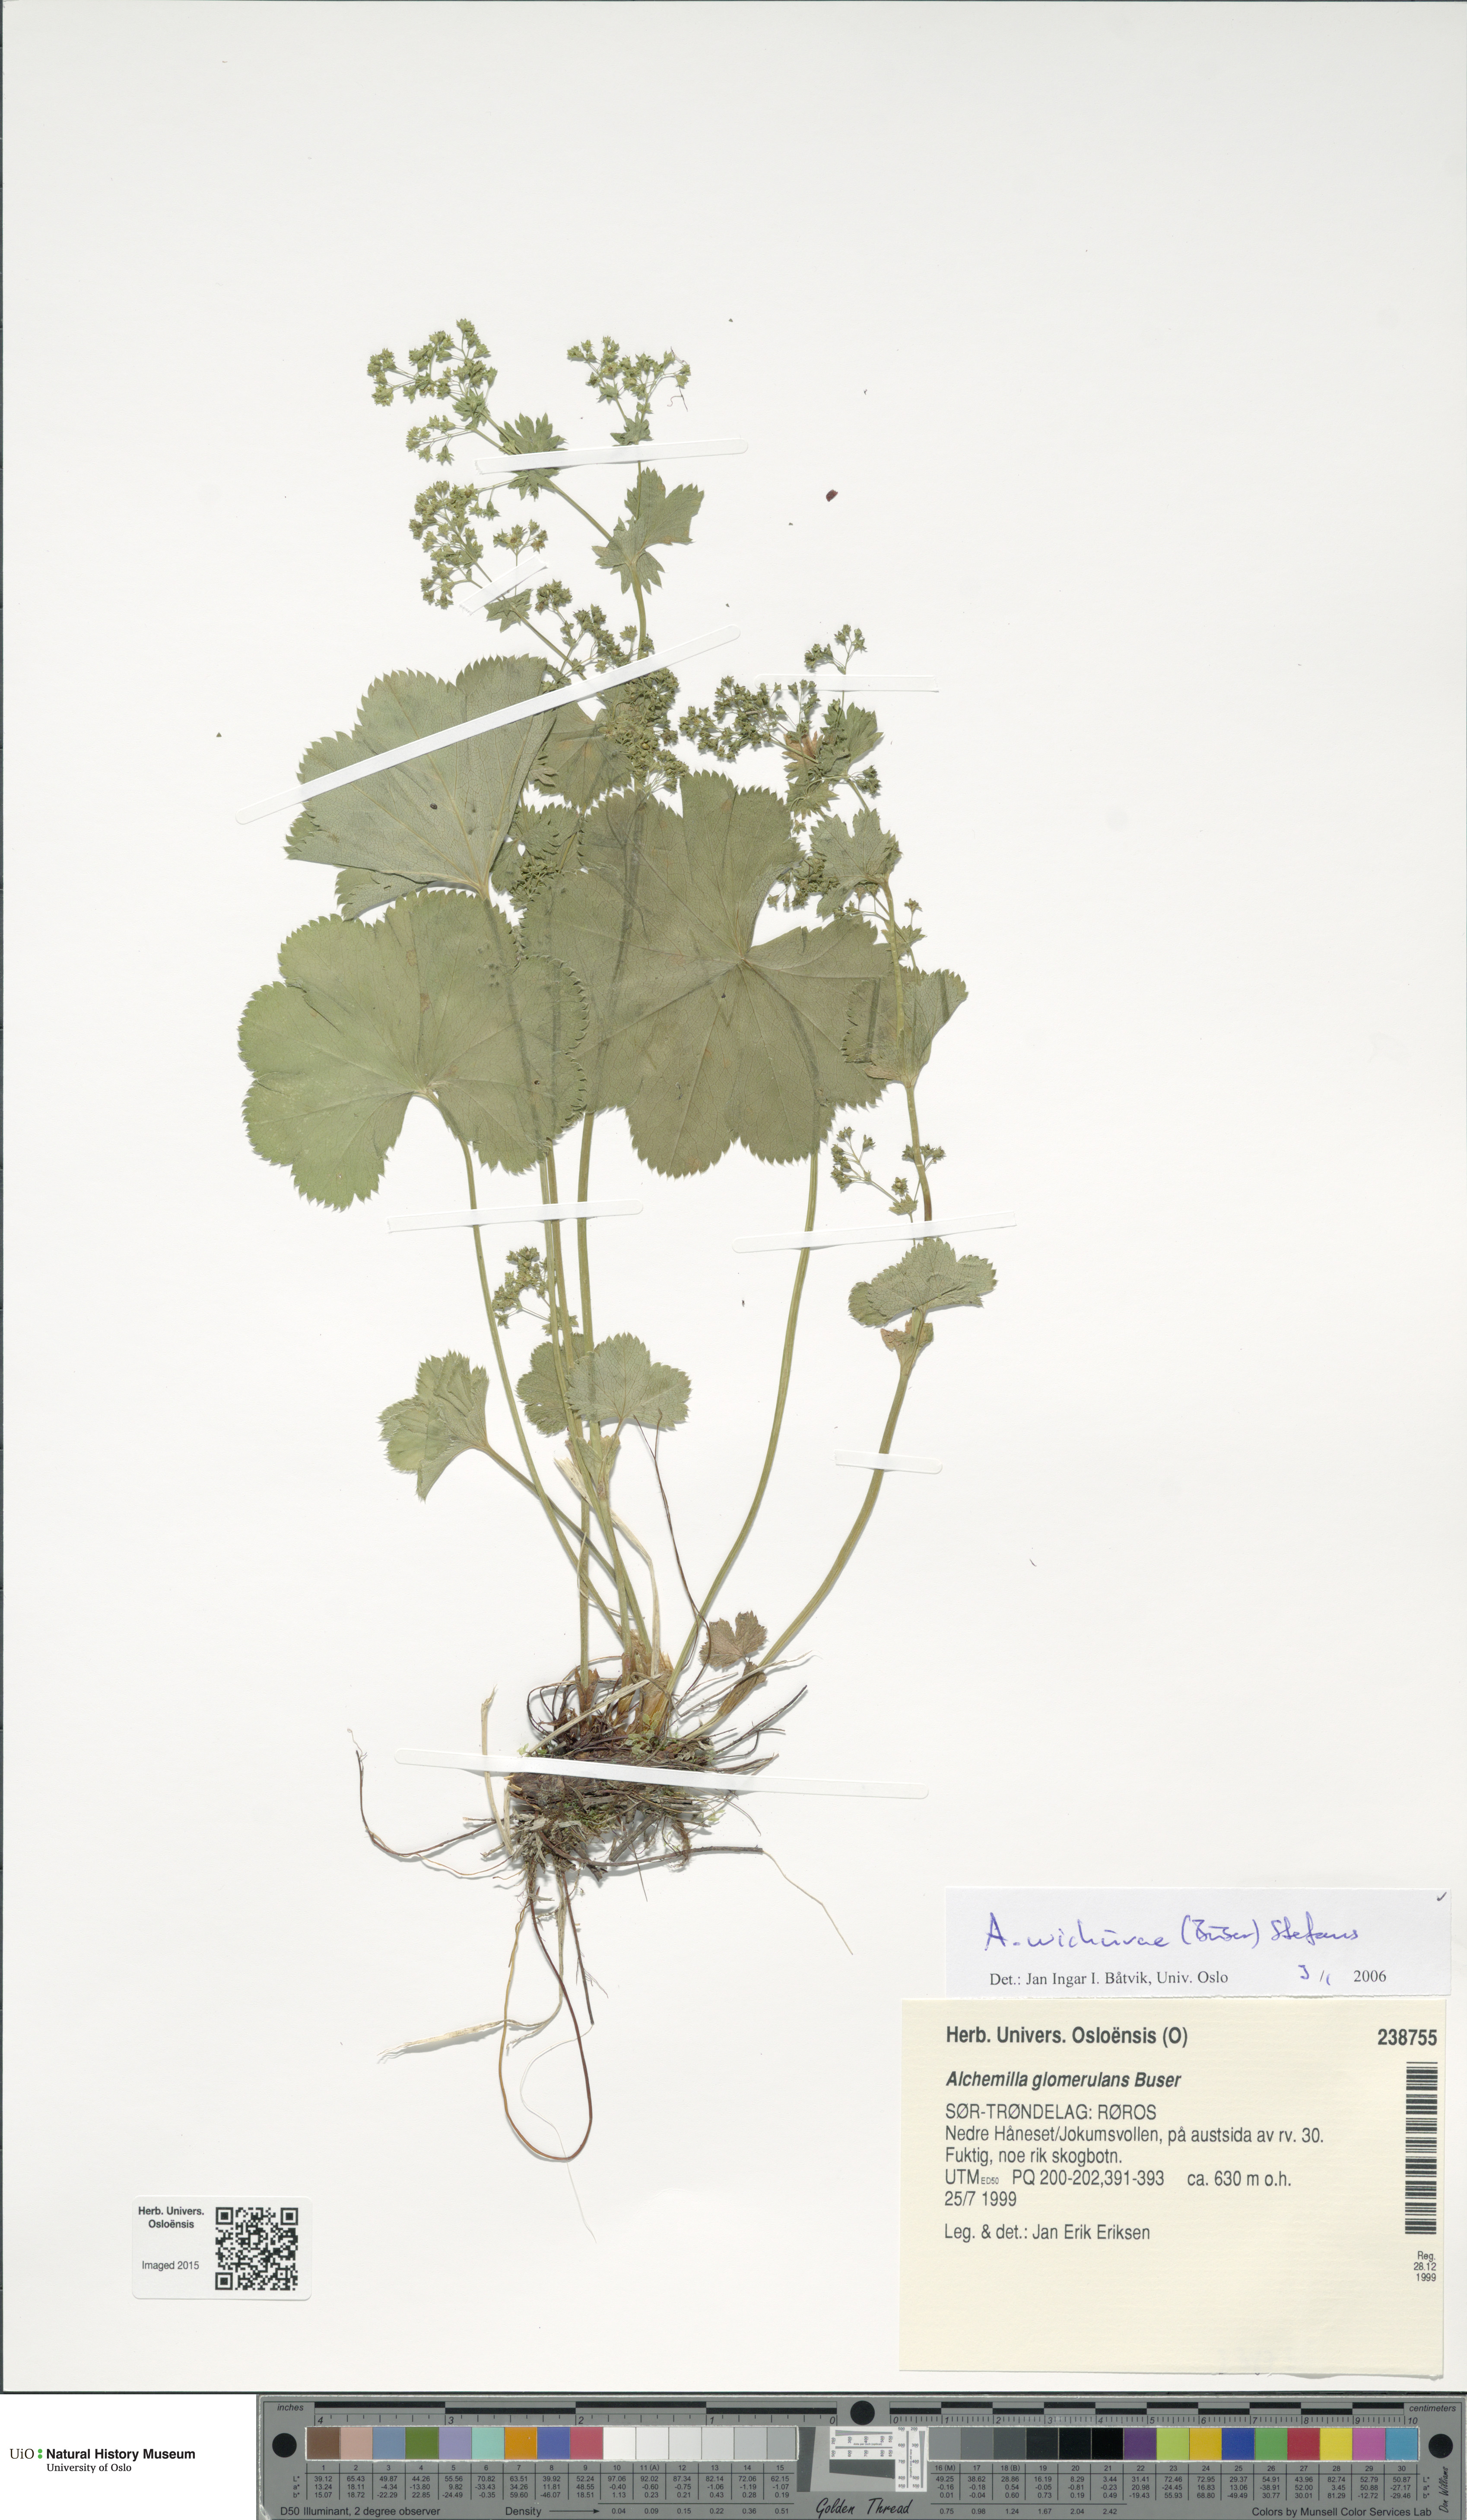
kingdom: Plantae
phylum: Tracheophyta
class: Magnoliopsida
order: Rosales
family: Rosaceae
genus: Alchemilla
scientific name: Alchemilla wichurae
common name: Rock lady's mantle
